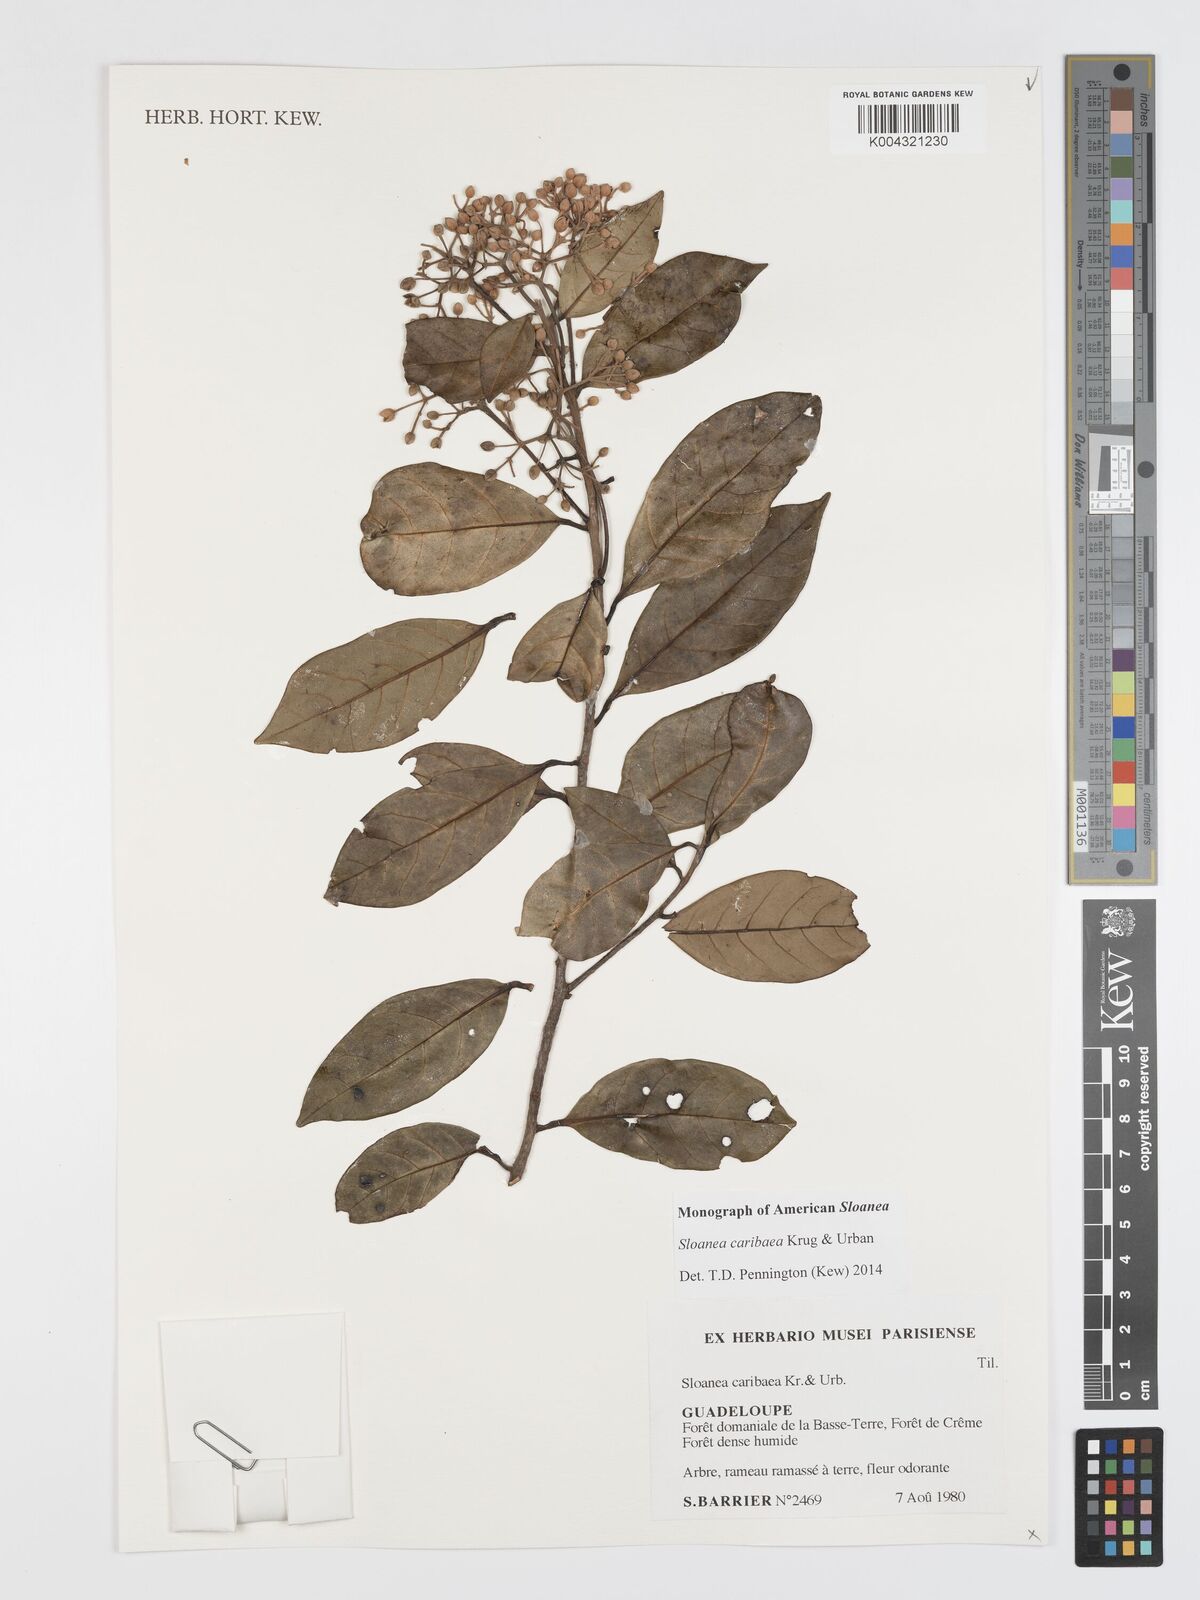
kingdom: Plantae
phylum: Tracheophyta
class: Magnoliopsida
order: Oxalidales
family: Elaeocarpaceae
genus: Sloanea
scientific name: Sloanea caribaea
